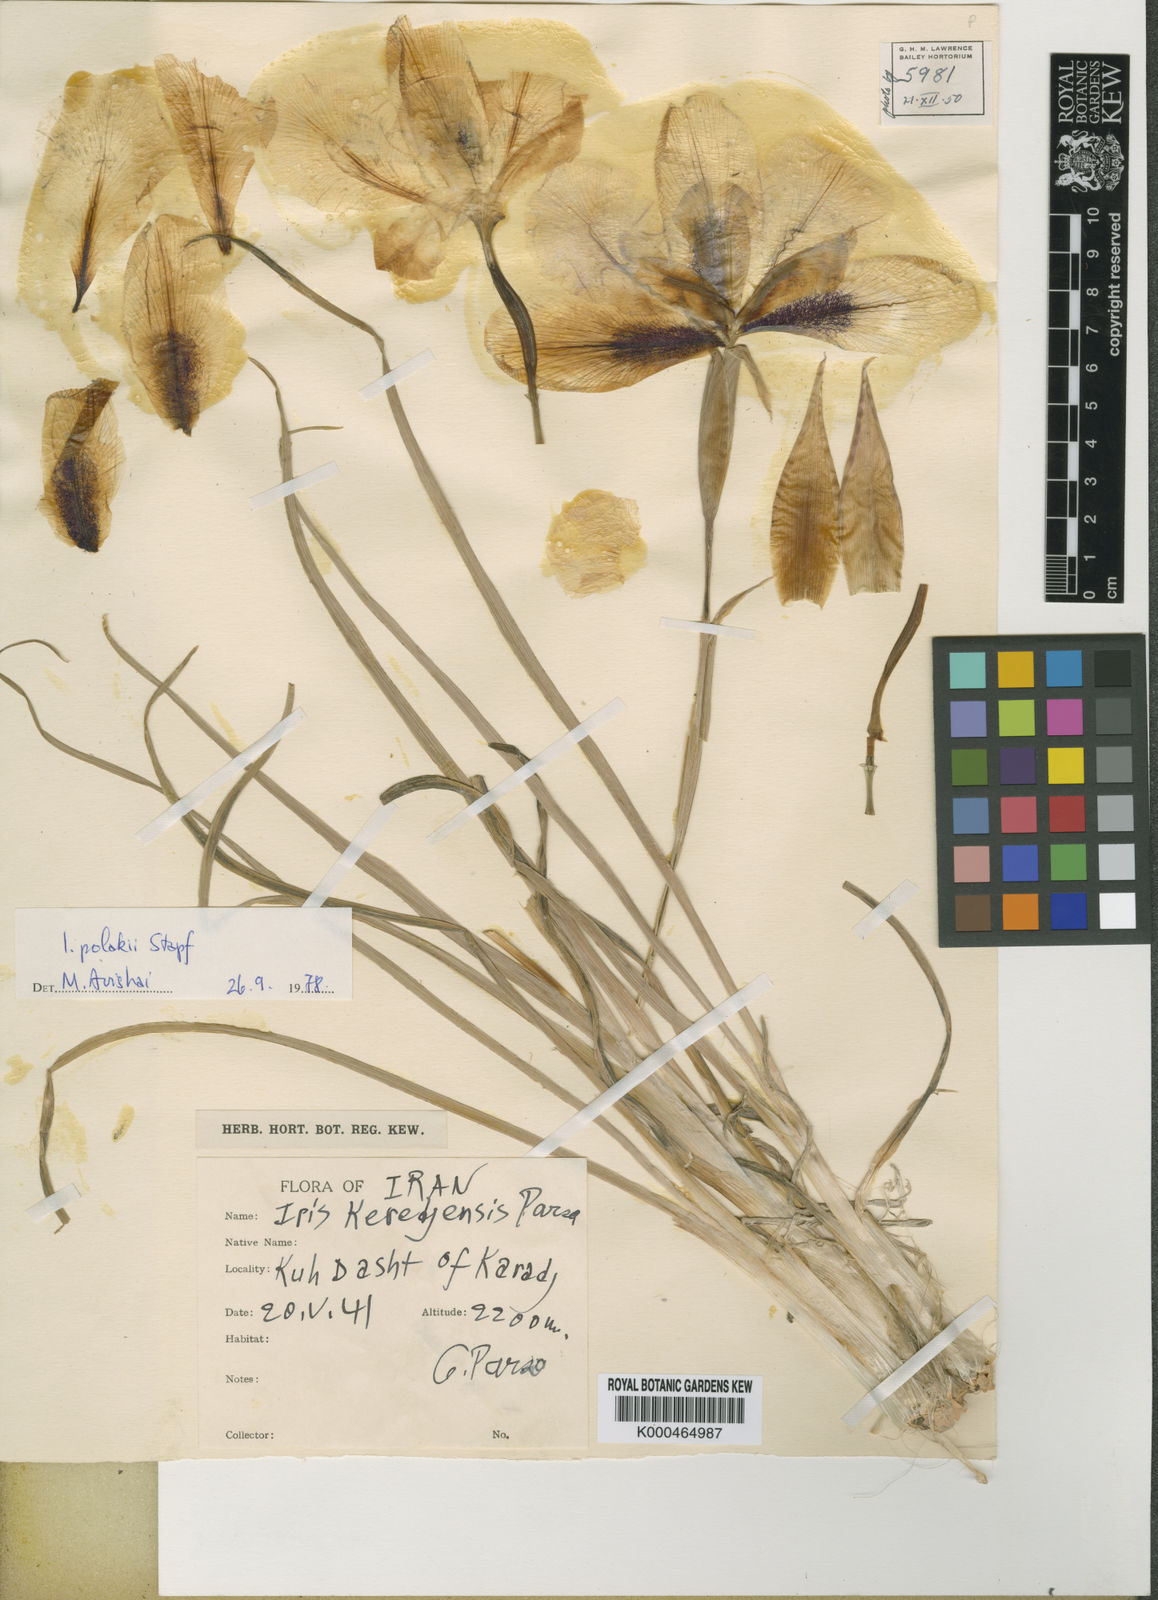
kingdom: Plantae
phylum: Tracheophyta
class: Liliopsida
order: Asparagales
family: Iridaceae
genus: Iris
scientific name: Iris keredjensis
